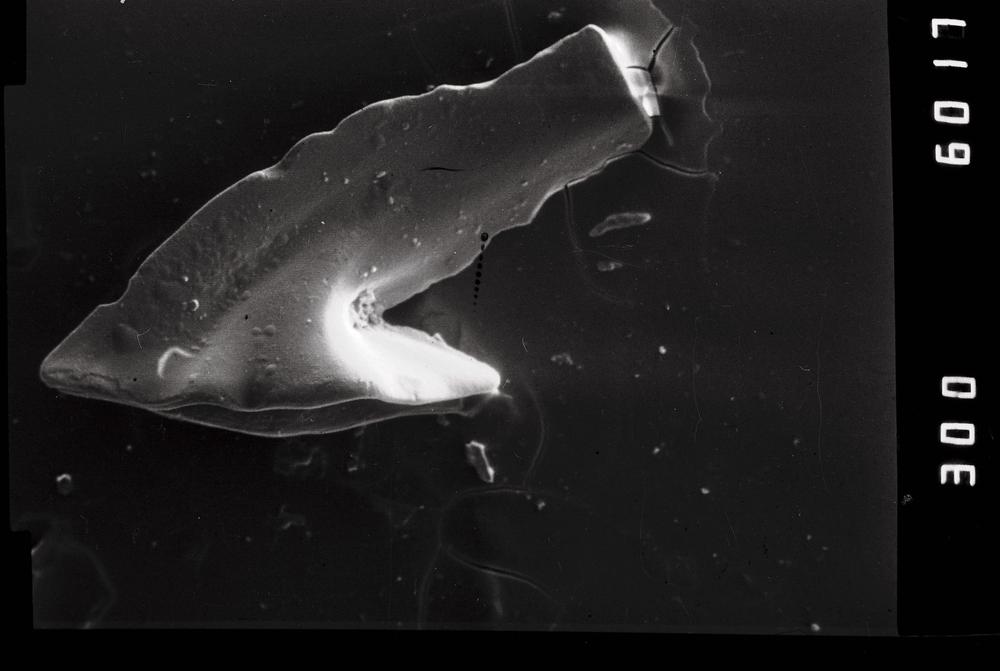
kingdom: Animalia
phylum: Annelida
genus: Paltodus
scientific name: Paltodus subaequalis
